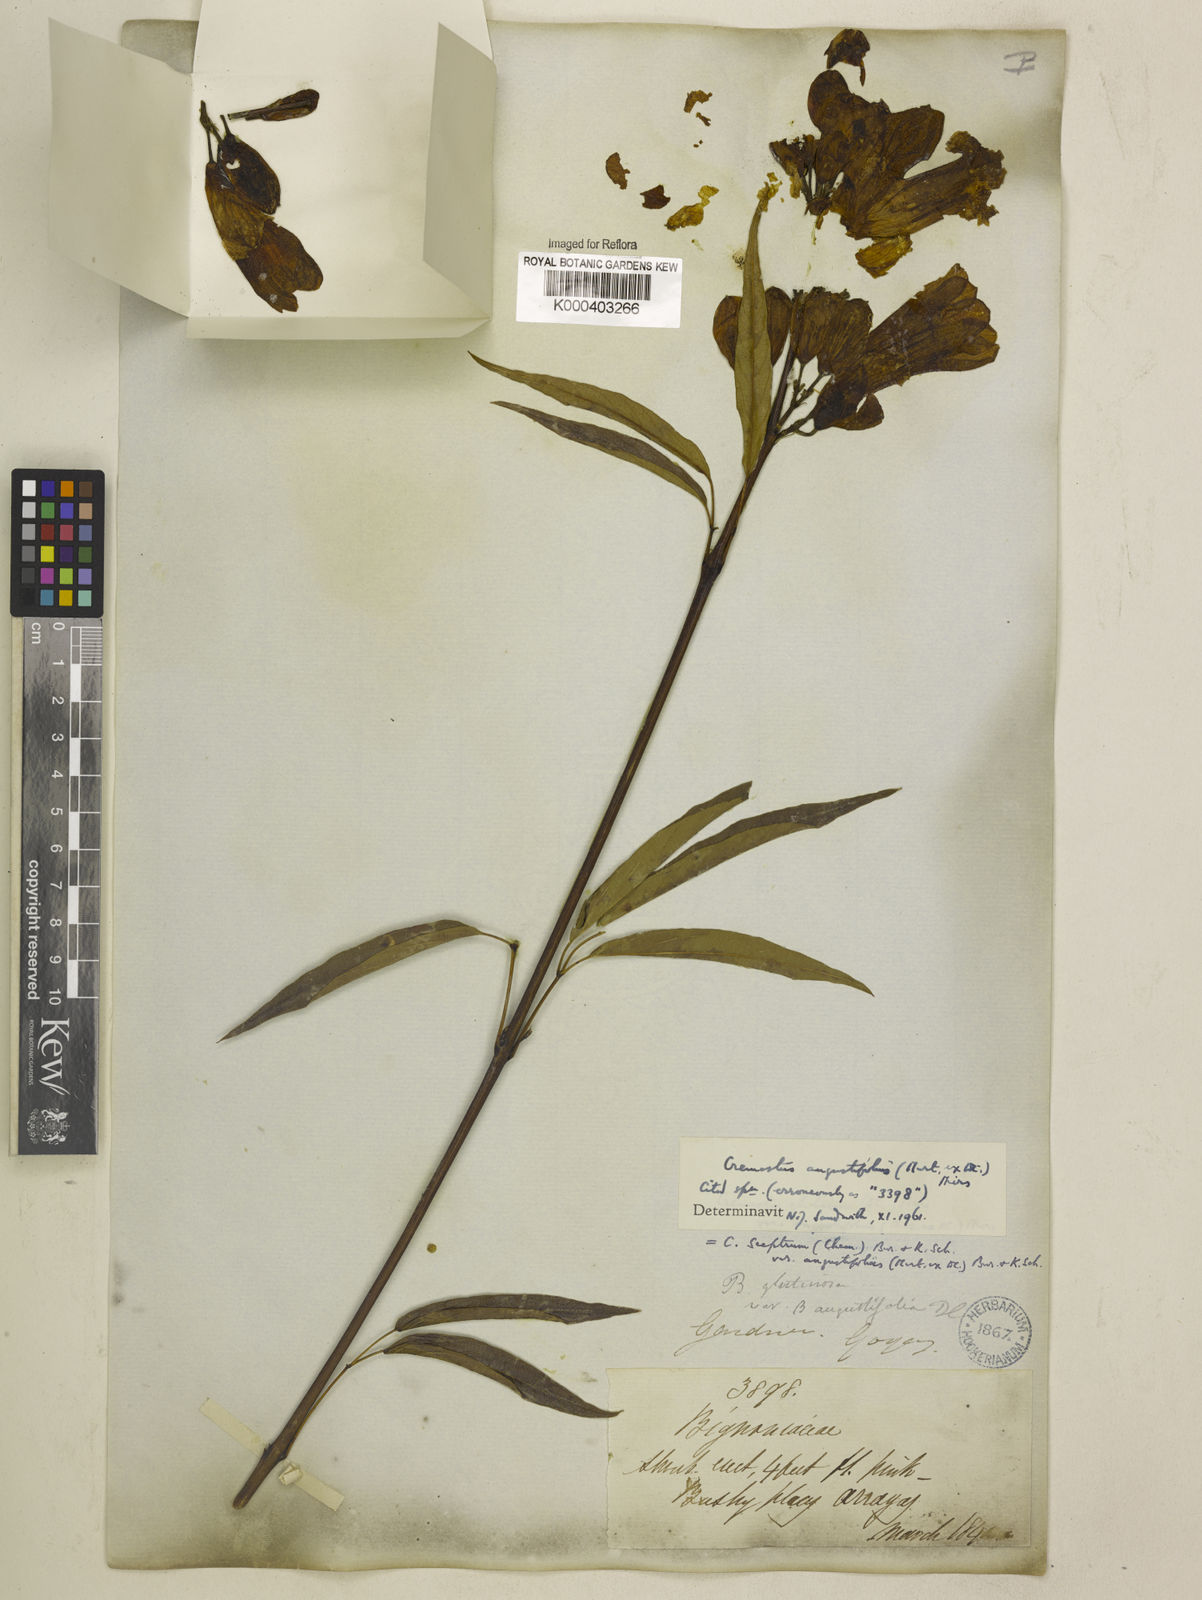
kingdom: Plantae
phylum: Tracheophyta
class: Magnoliopsida
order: Lamiales
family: Bignoniaceae
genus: Cuspidaria
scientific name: Cuspidaria sceptrum
